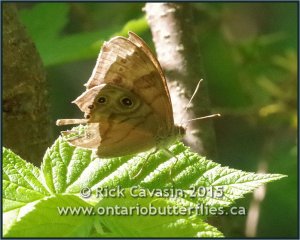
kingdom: Animalia
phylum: Arthropoda
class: Insecta
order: Lepidoptera
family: Nymphalidae
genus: Lethe
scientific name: Lethe anthedon
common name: Northern Pearly-Eye
